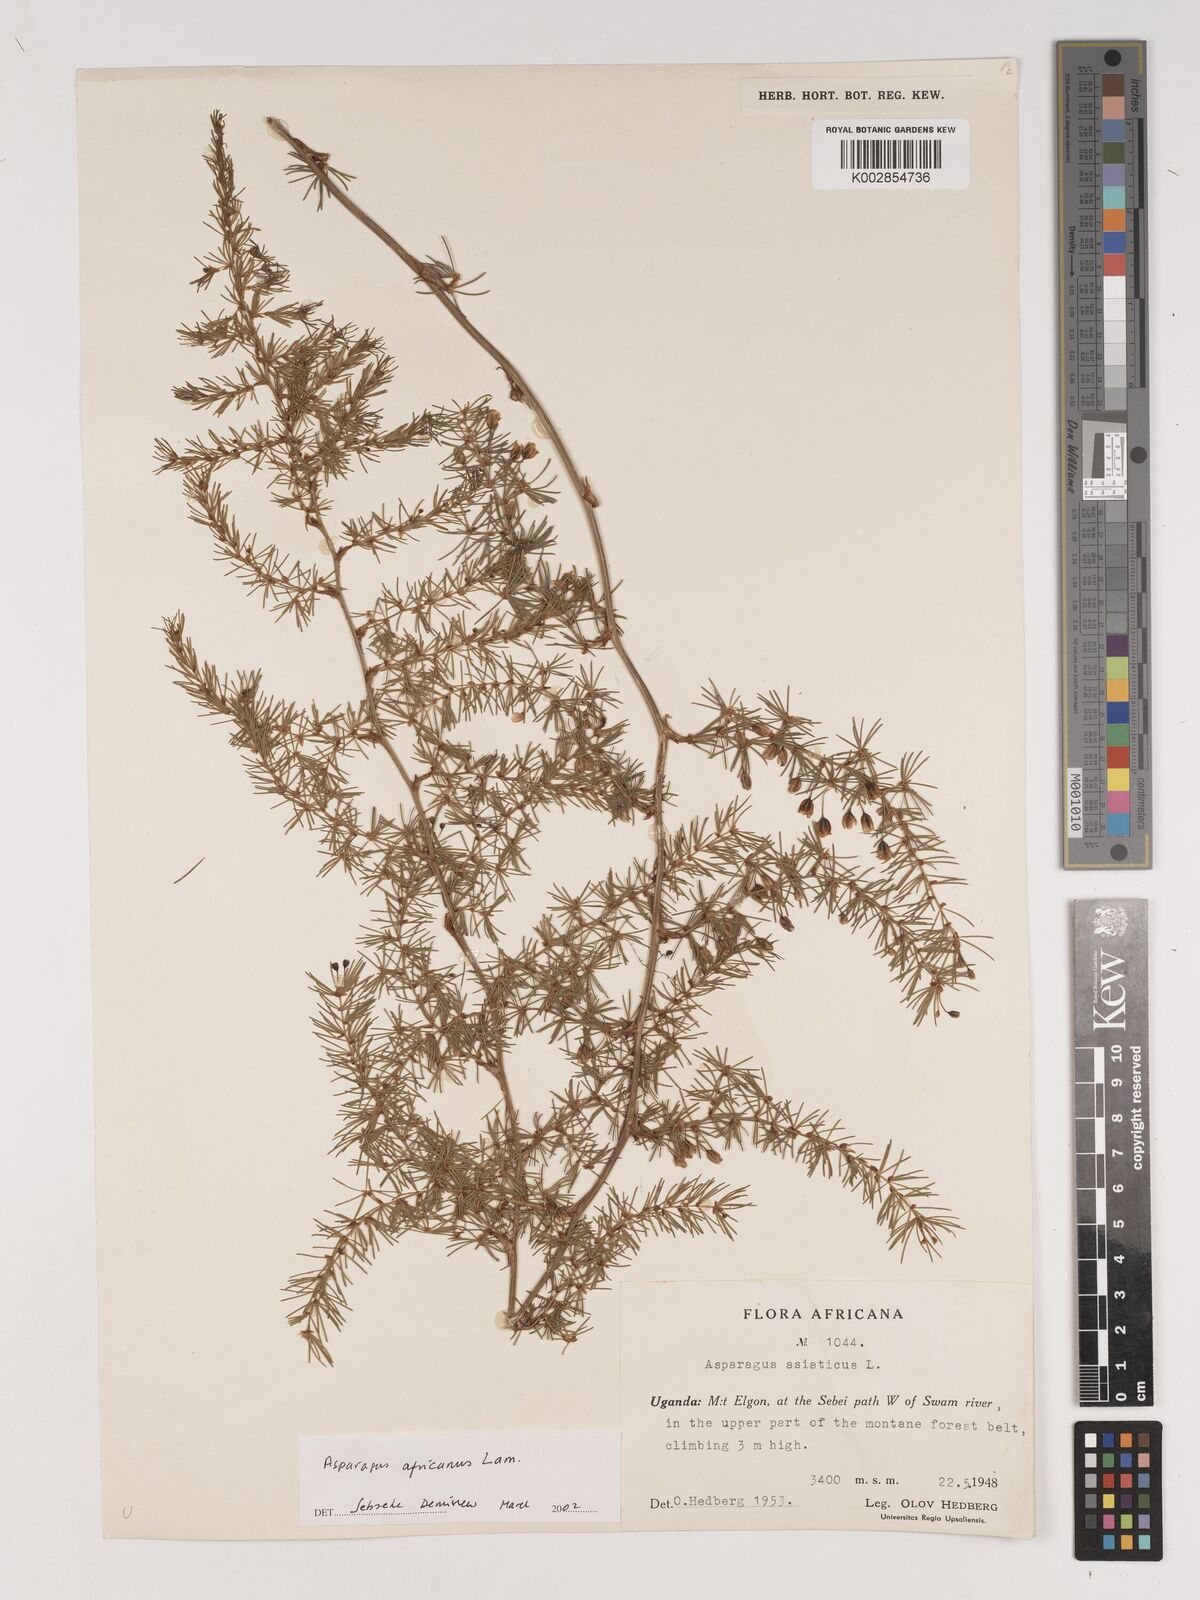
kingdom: Plantae
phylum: Tracheophyta
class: Liliopsida
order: Asparagales
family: Asparagaceae
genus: Asparagus
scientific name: Asparagus africanus
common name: Asparagus-fern
